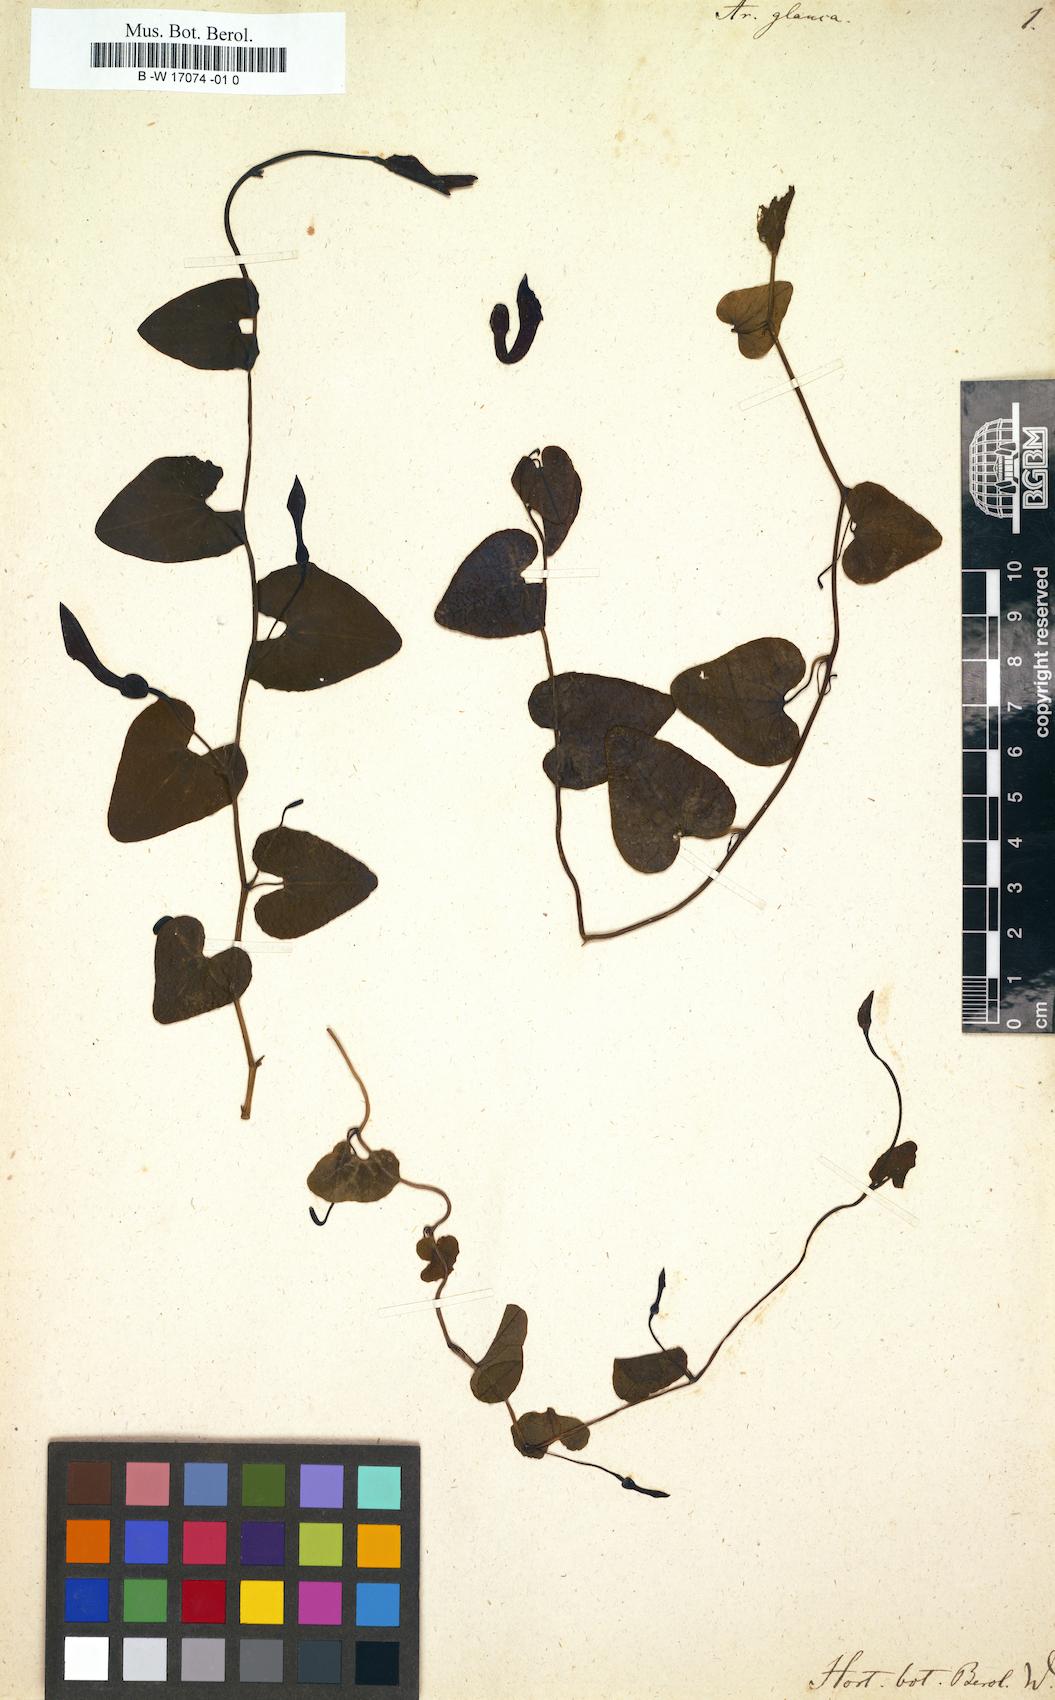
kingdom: Plantae
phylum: Tracheophyta
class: Magnoliopsida
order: Piperales
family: Aristolochiaceae
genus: Aristolochia
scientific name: Aristolochia baetica
